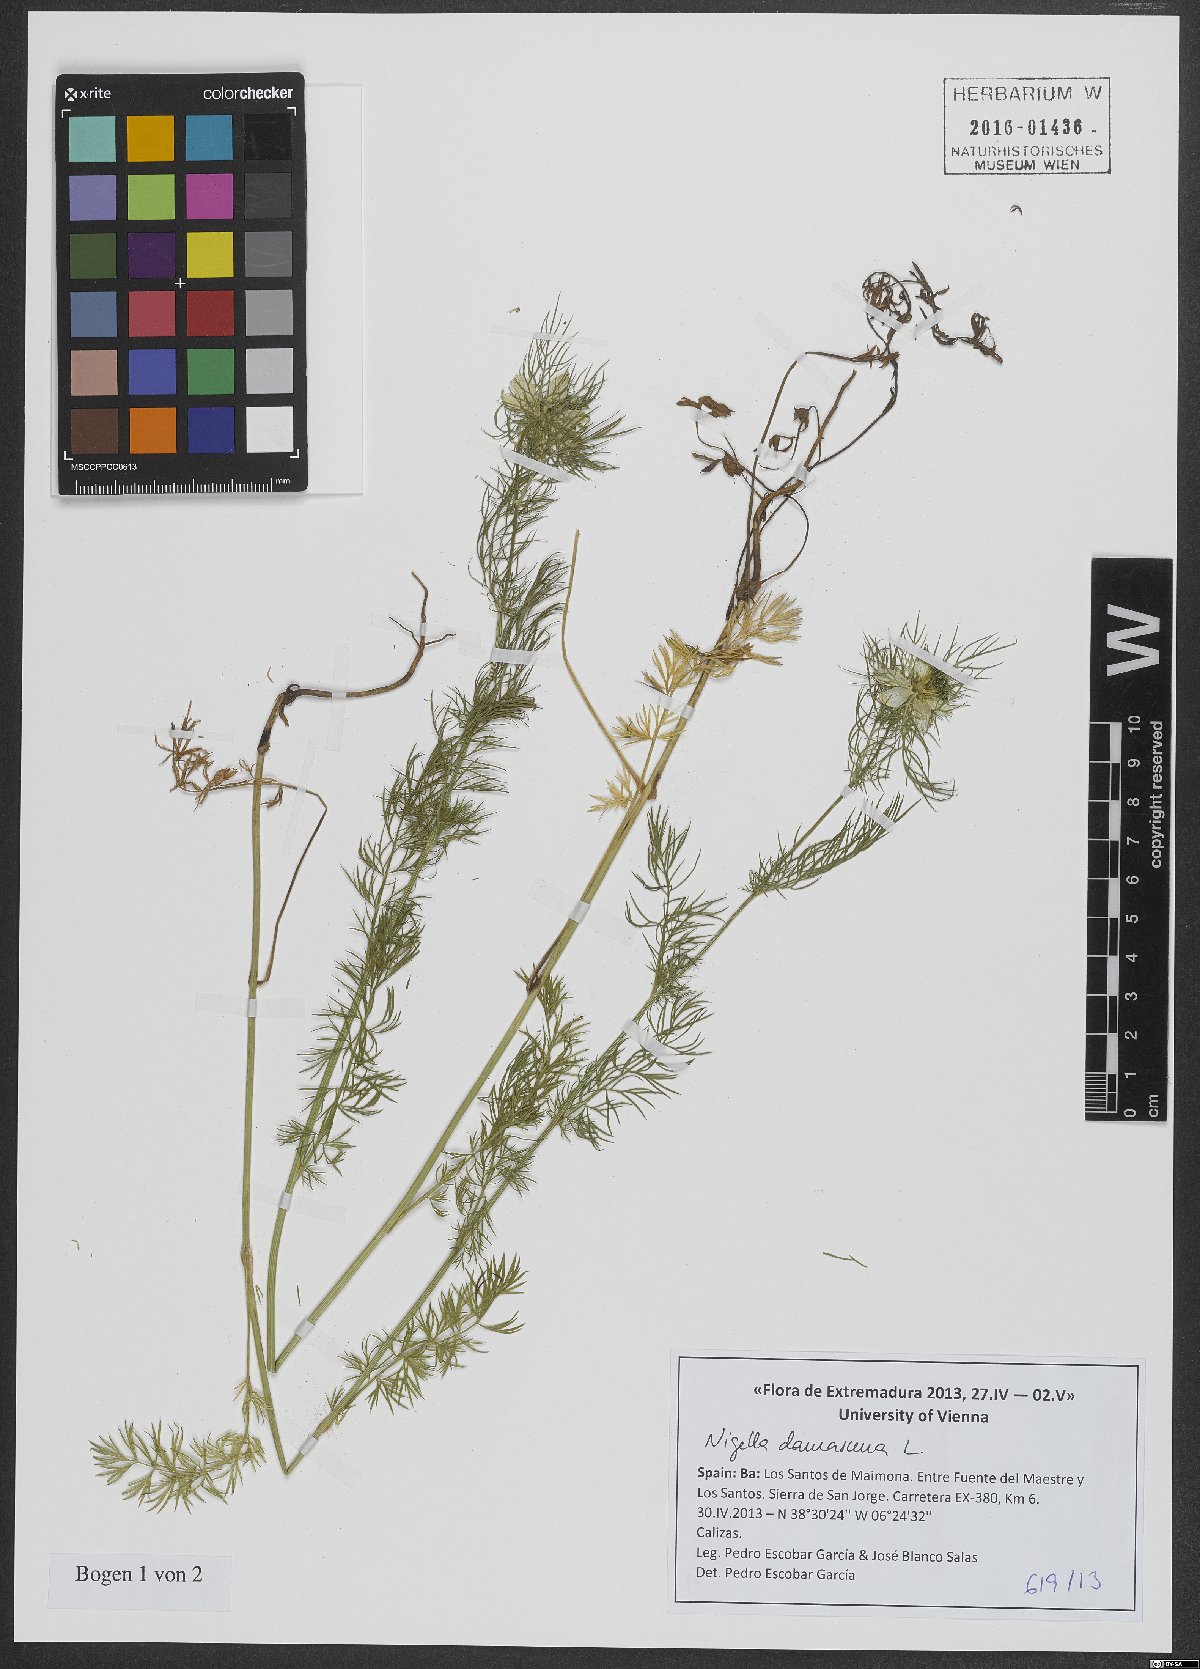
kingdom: Plantae
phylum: Tracheophyta
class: Magnoliopsida
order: Ranunculales
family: Ranunculaceae
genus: Nigella
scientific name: Nigella damascena
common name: Love-in-a-mist
